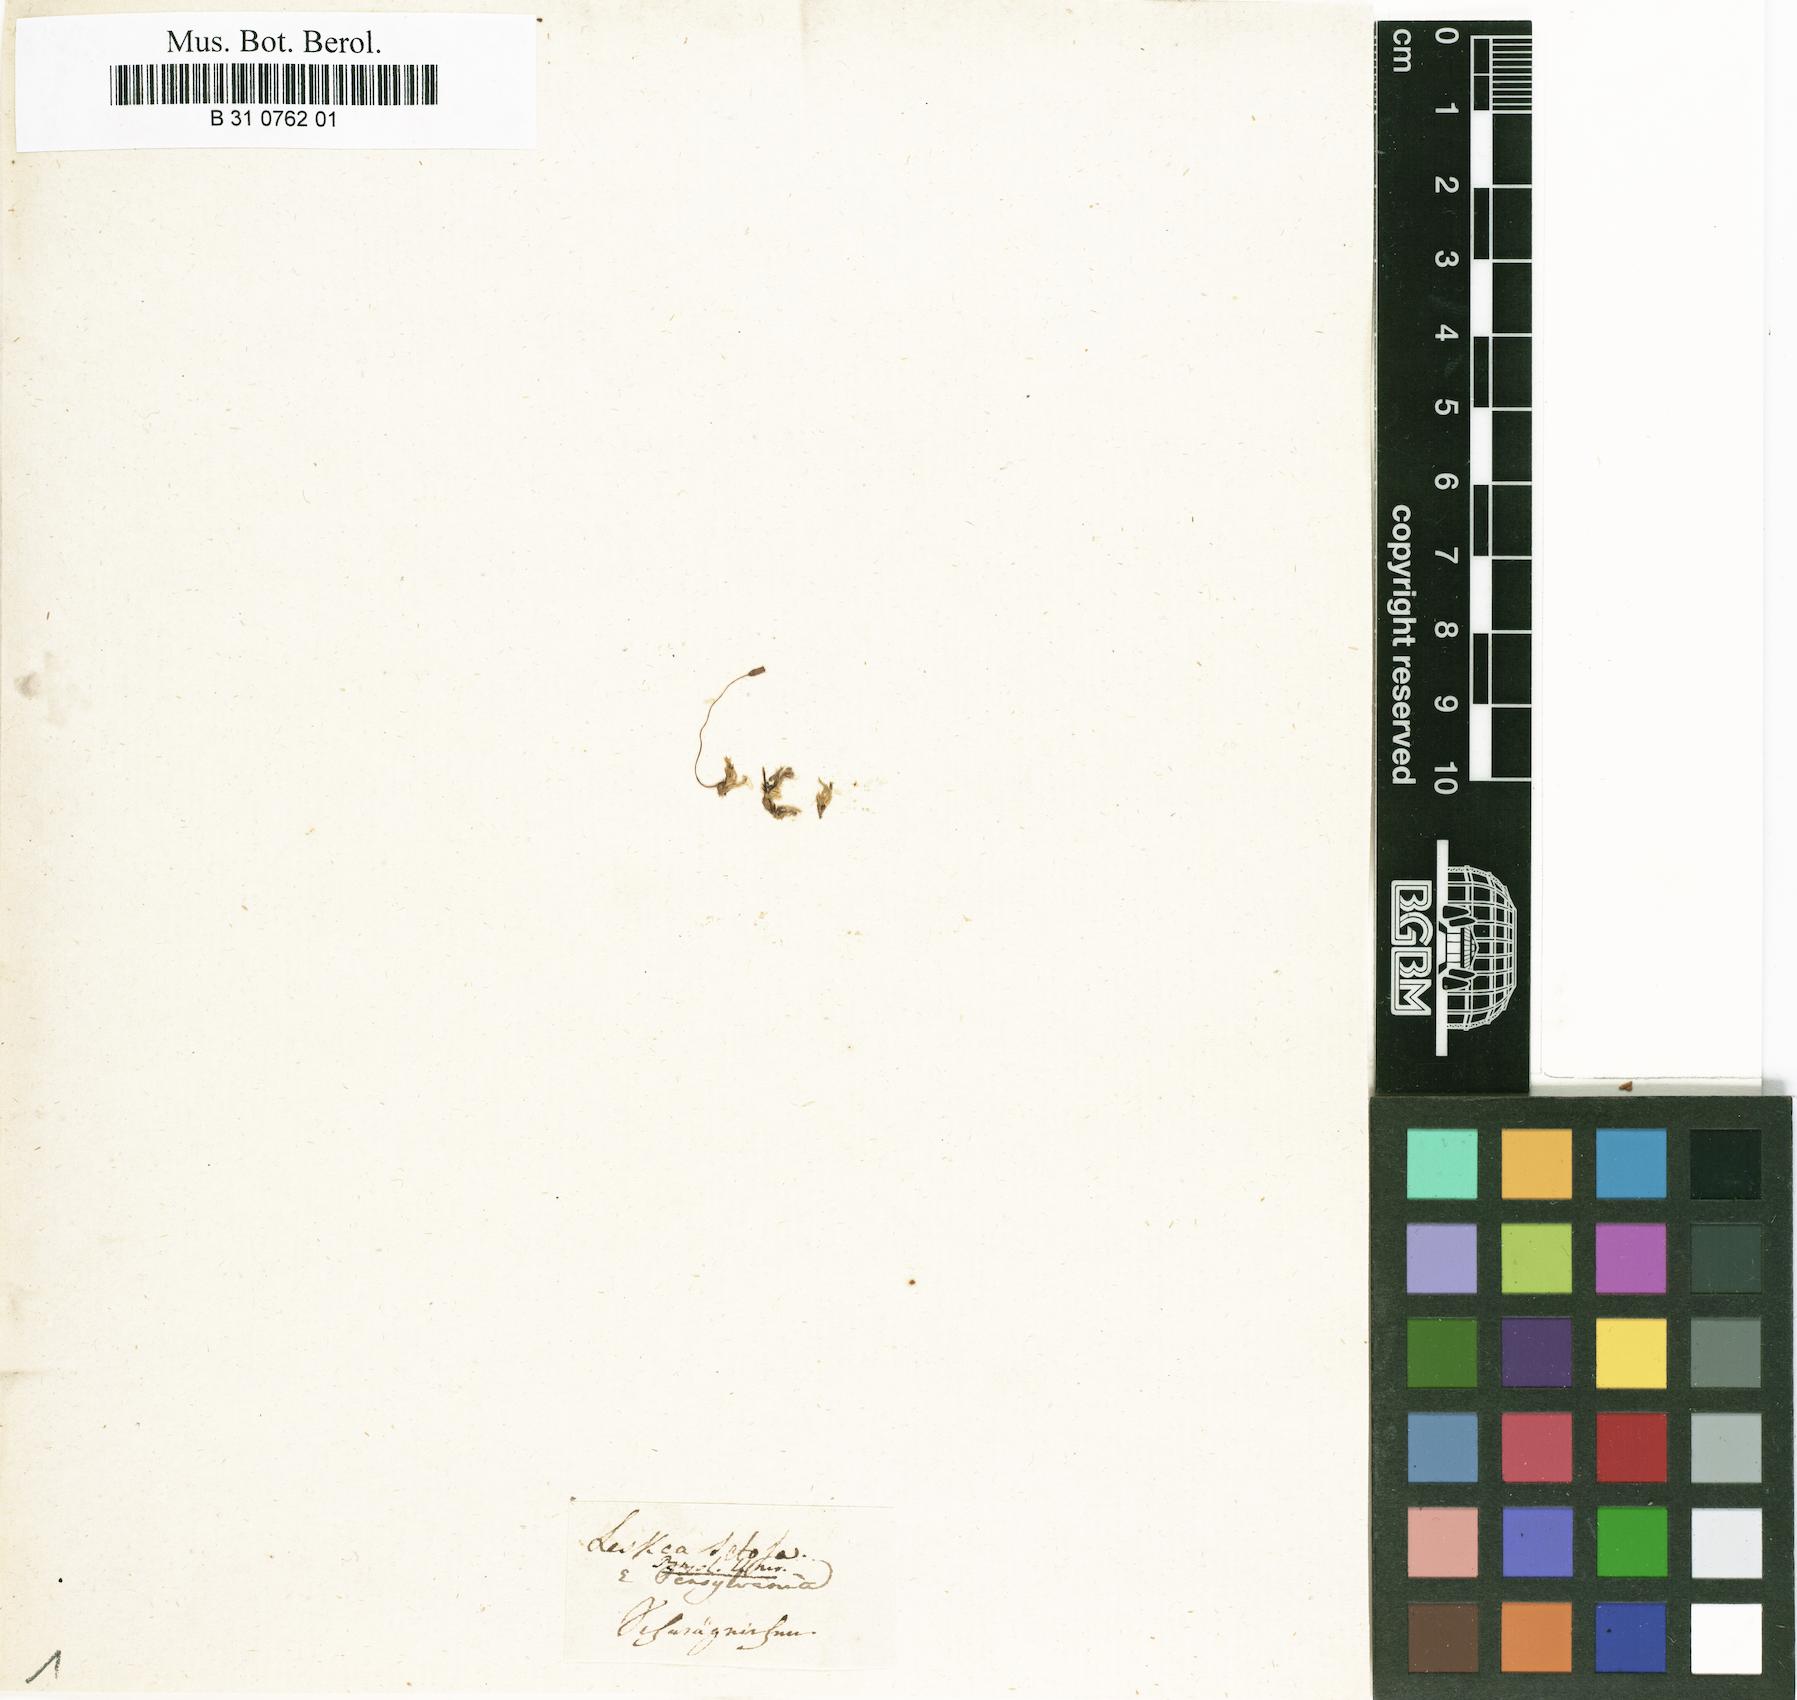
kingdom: Plantae
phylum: Bryophyta
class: Bryopsida
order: Hypnales
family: Brachytheciaceae
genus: Brachythecium
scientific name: Brachythecium acuminatum
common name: Acuminate ragged moss
